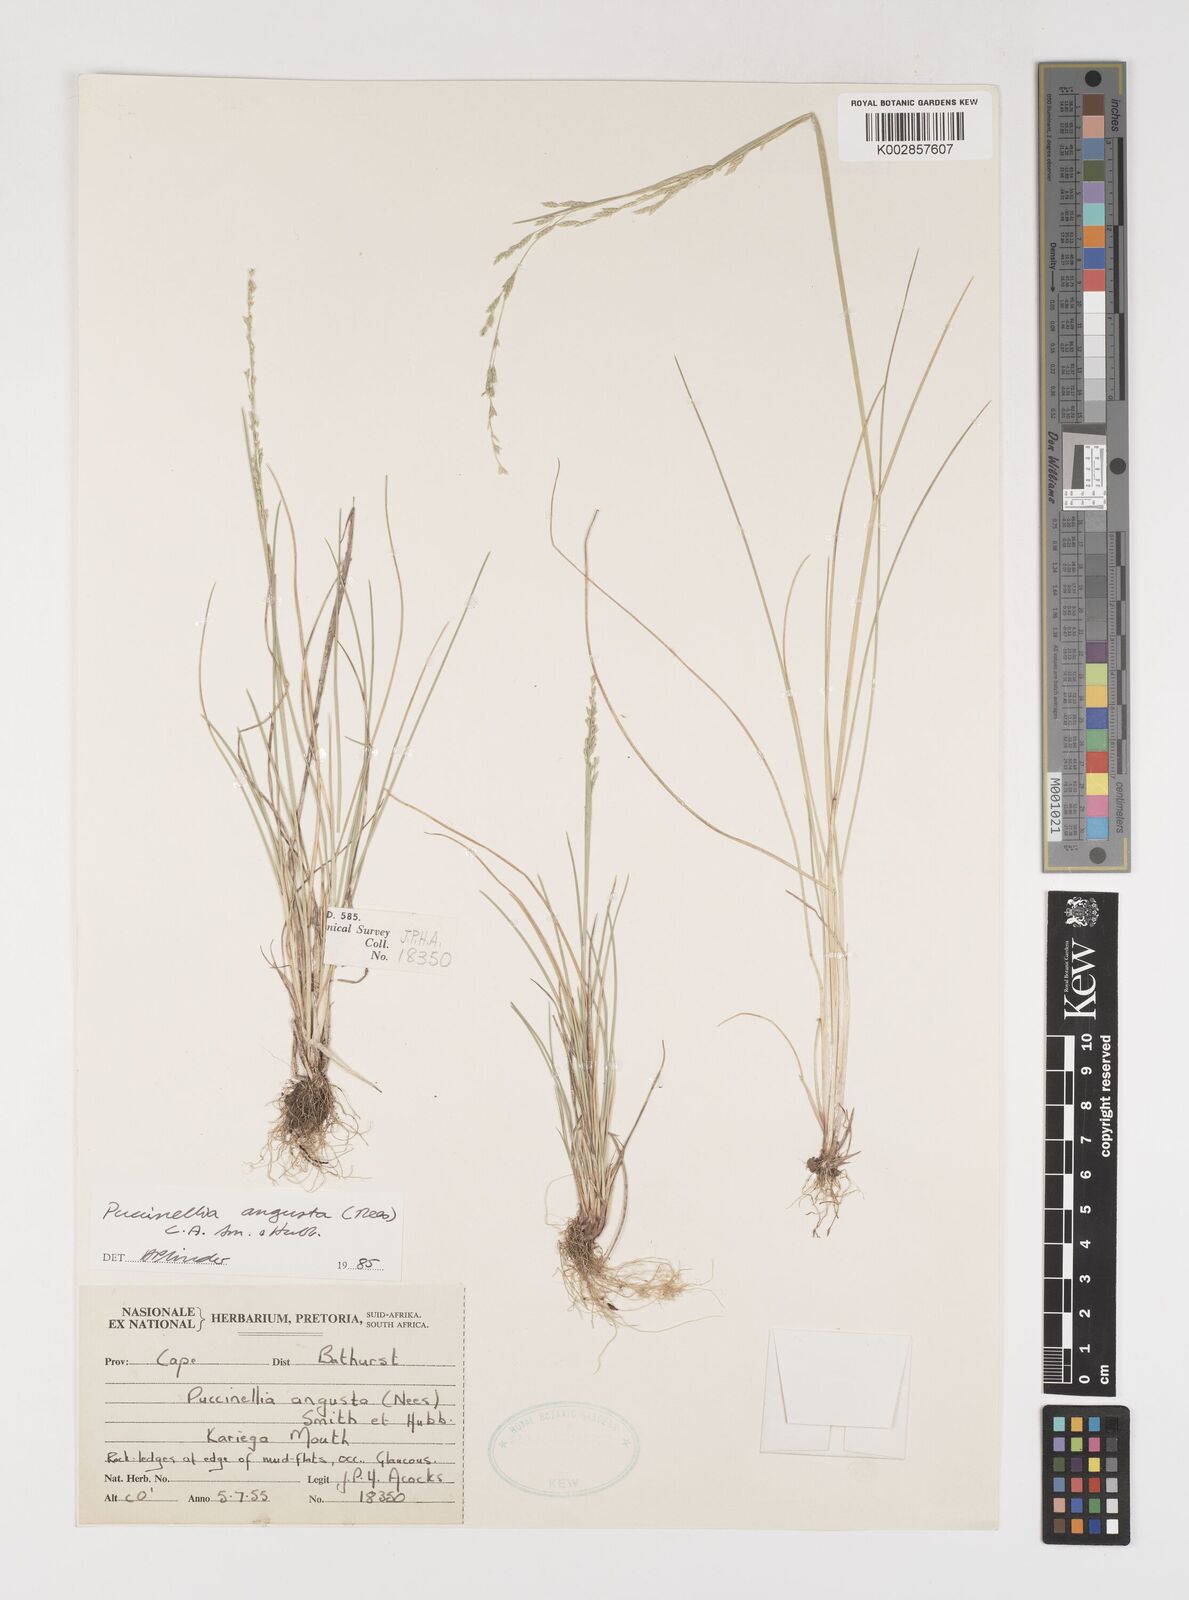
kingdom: Plantae
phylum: Tracheophyta
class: Liliopsida
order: Poales
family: Poaceae
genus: Puccinellia
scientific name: Puccinellia angusta
